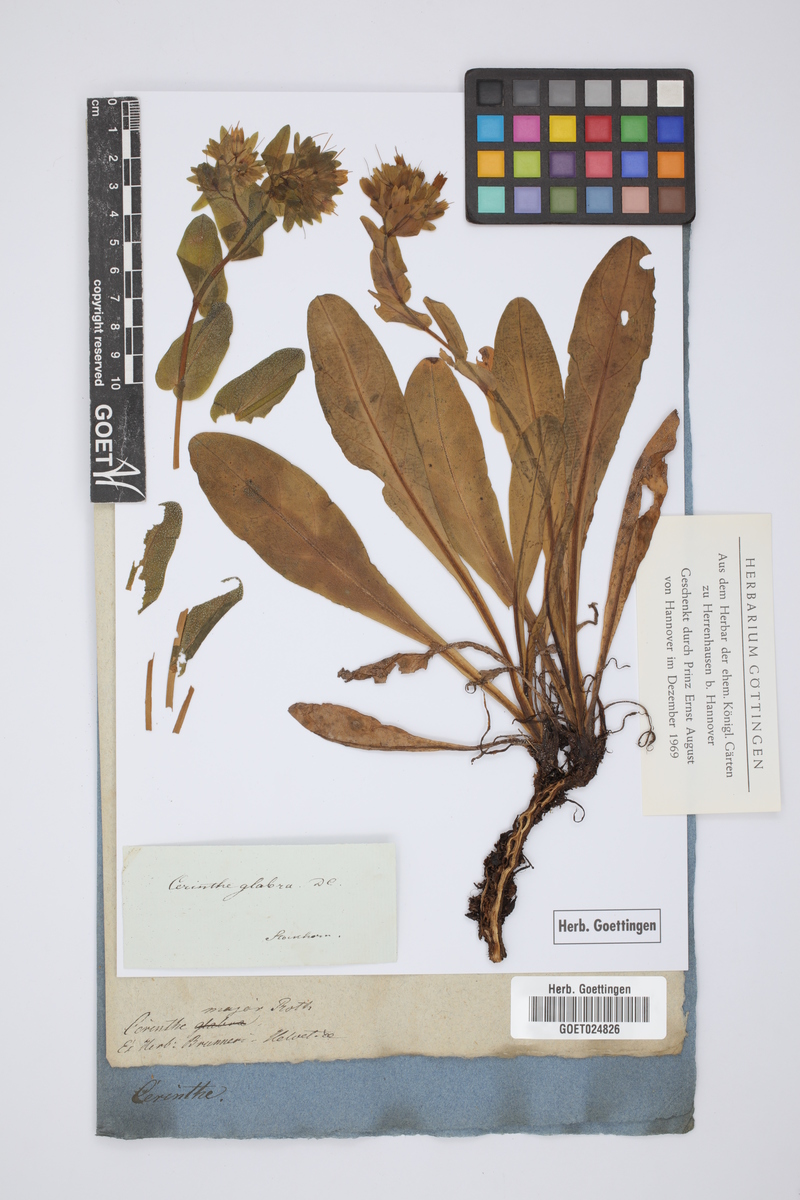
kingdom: Plantae
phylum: Tracheophyta
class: Magnoliopsida
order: Boraginales
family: Boraginaceae
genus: Cerinthe
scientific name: Cerinthe major
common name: Greater honeywort
